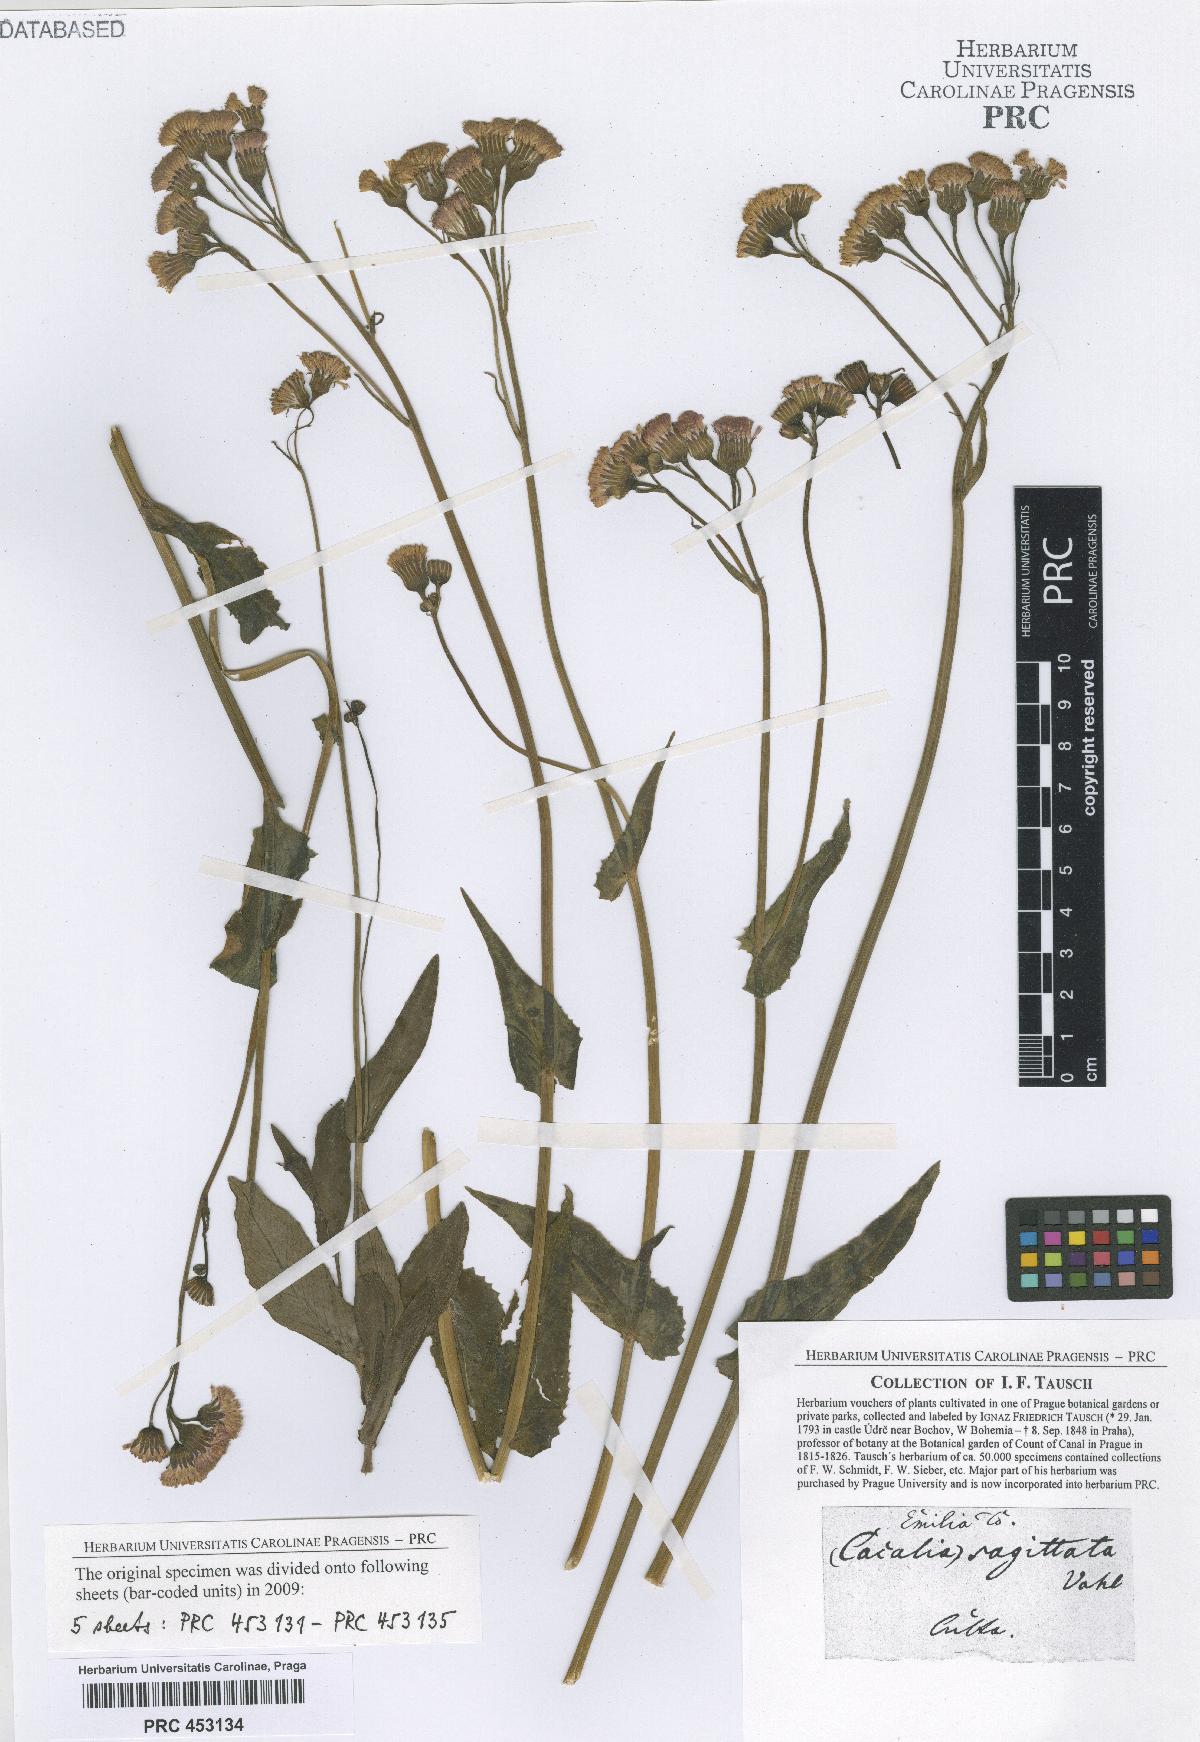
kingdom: Plantae
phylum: Tracheophyta
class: Magnoliopsida
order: Asterales
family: Asteraceae
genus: Adenostyles
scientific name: Adenostyles Cacalia scandens
